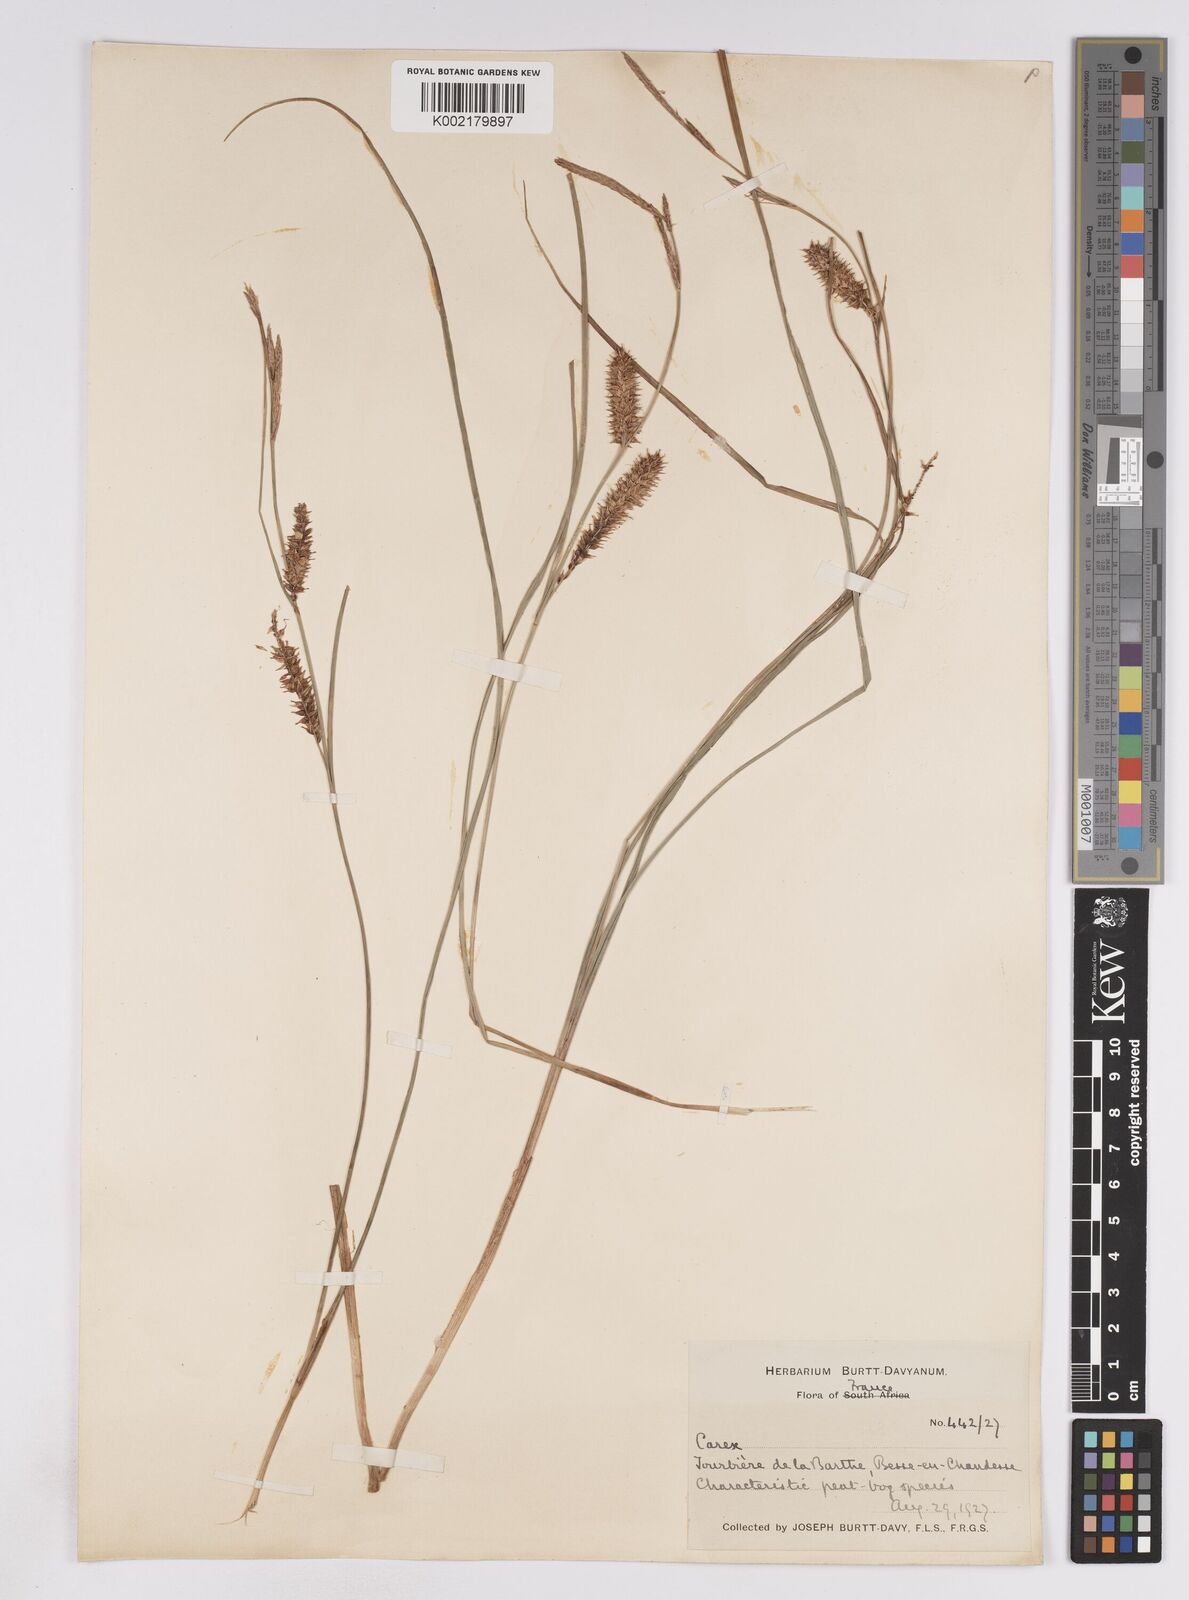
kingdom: Plantae
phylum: Tracheophyta
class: Liliopsida
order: Poales
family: Cyperaceae
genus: Carex
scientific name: Carex rostrata
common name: Bottle sedge
